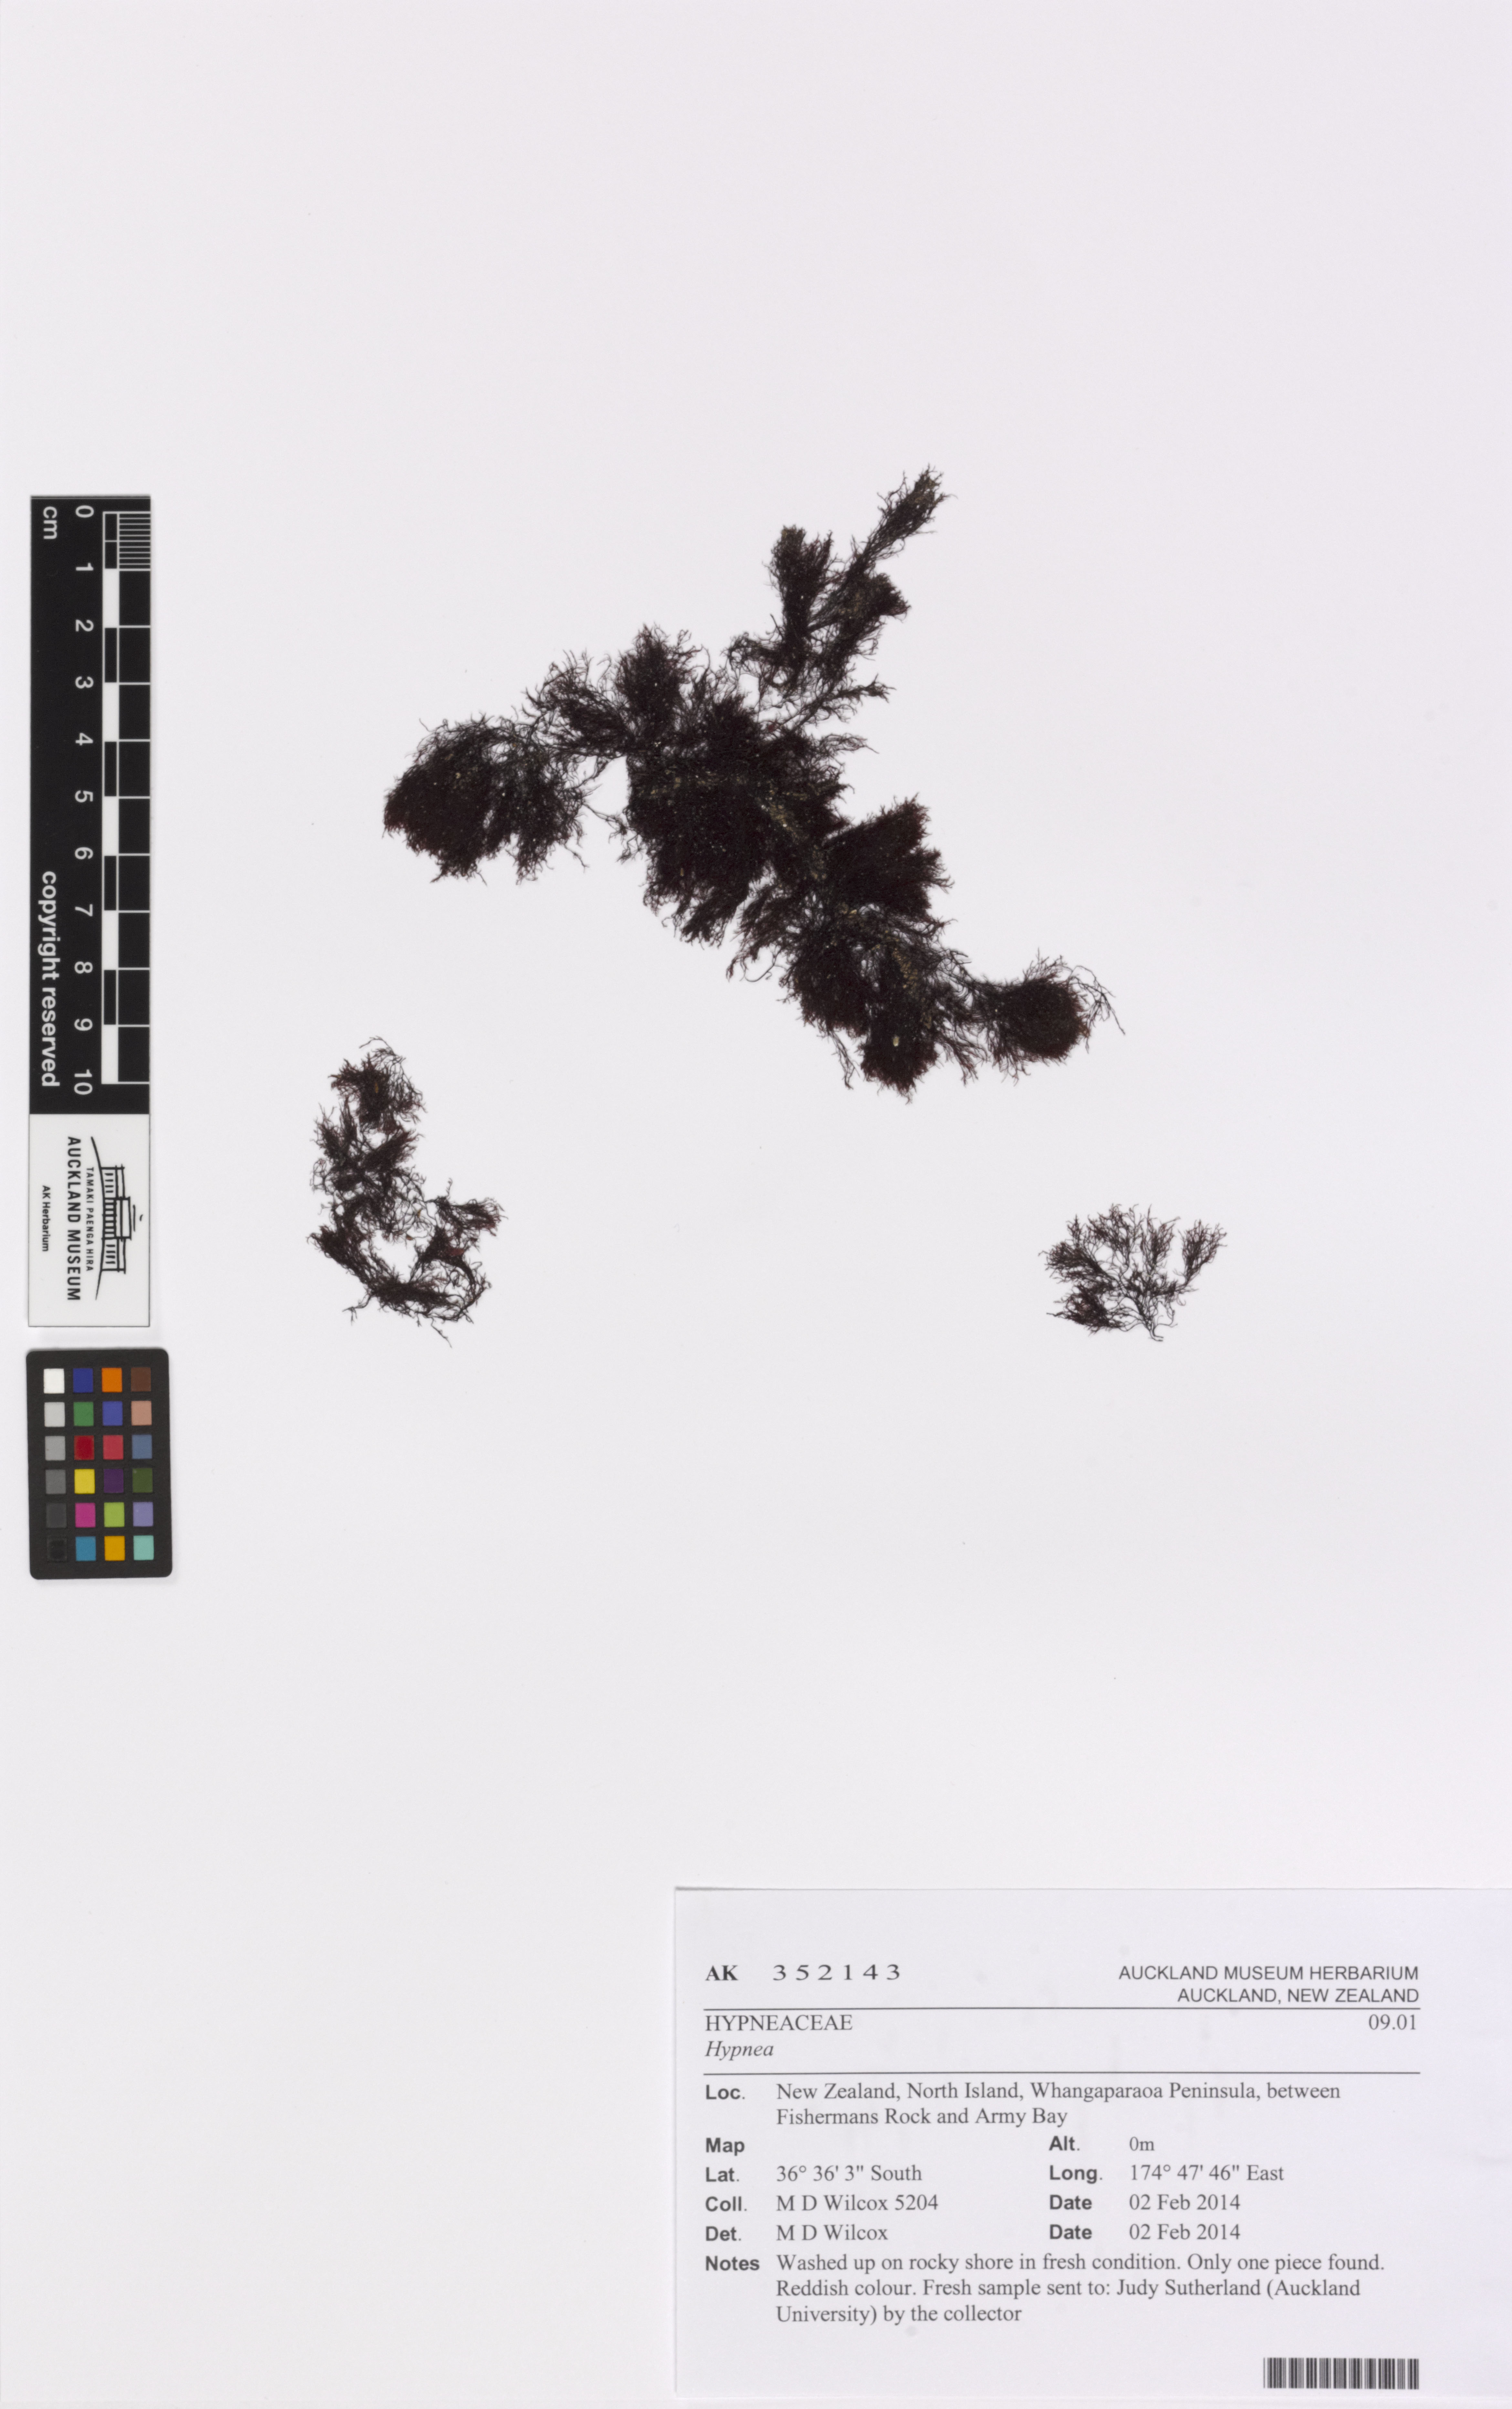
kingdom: Plantae
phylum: Rhodophyta
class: Florideophyceae
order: Gigartinales
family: Cystocloniaceae
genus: Calliblepharis
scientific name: Calliblepharis saidana
